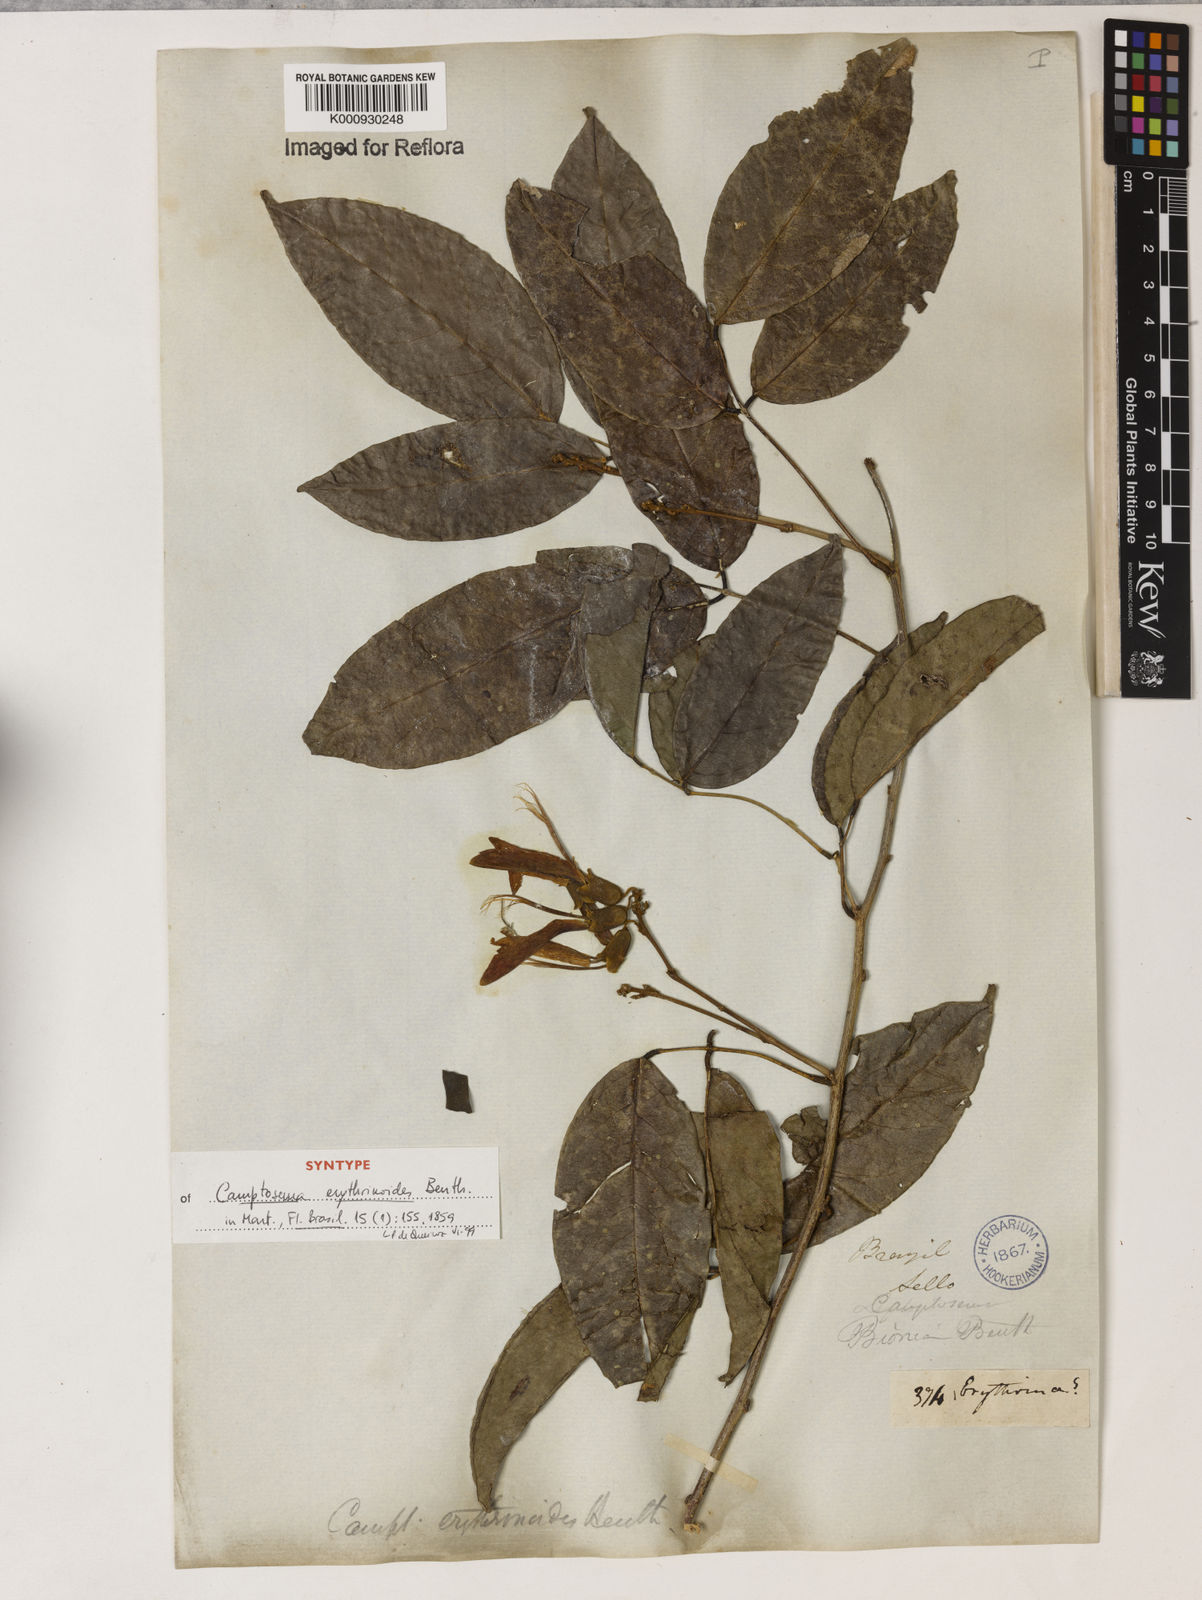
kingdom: Plantae
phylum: Tracheophyta
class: Magnoliopsida
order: Fabales
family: Fabaceae
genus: Cratylia
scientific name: Cratylia isopetala
